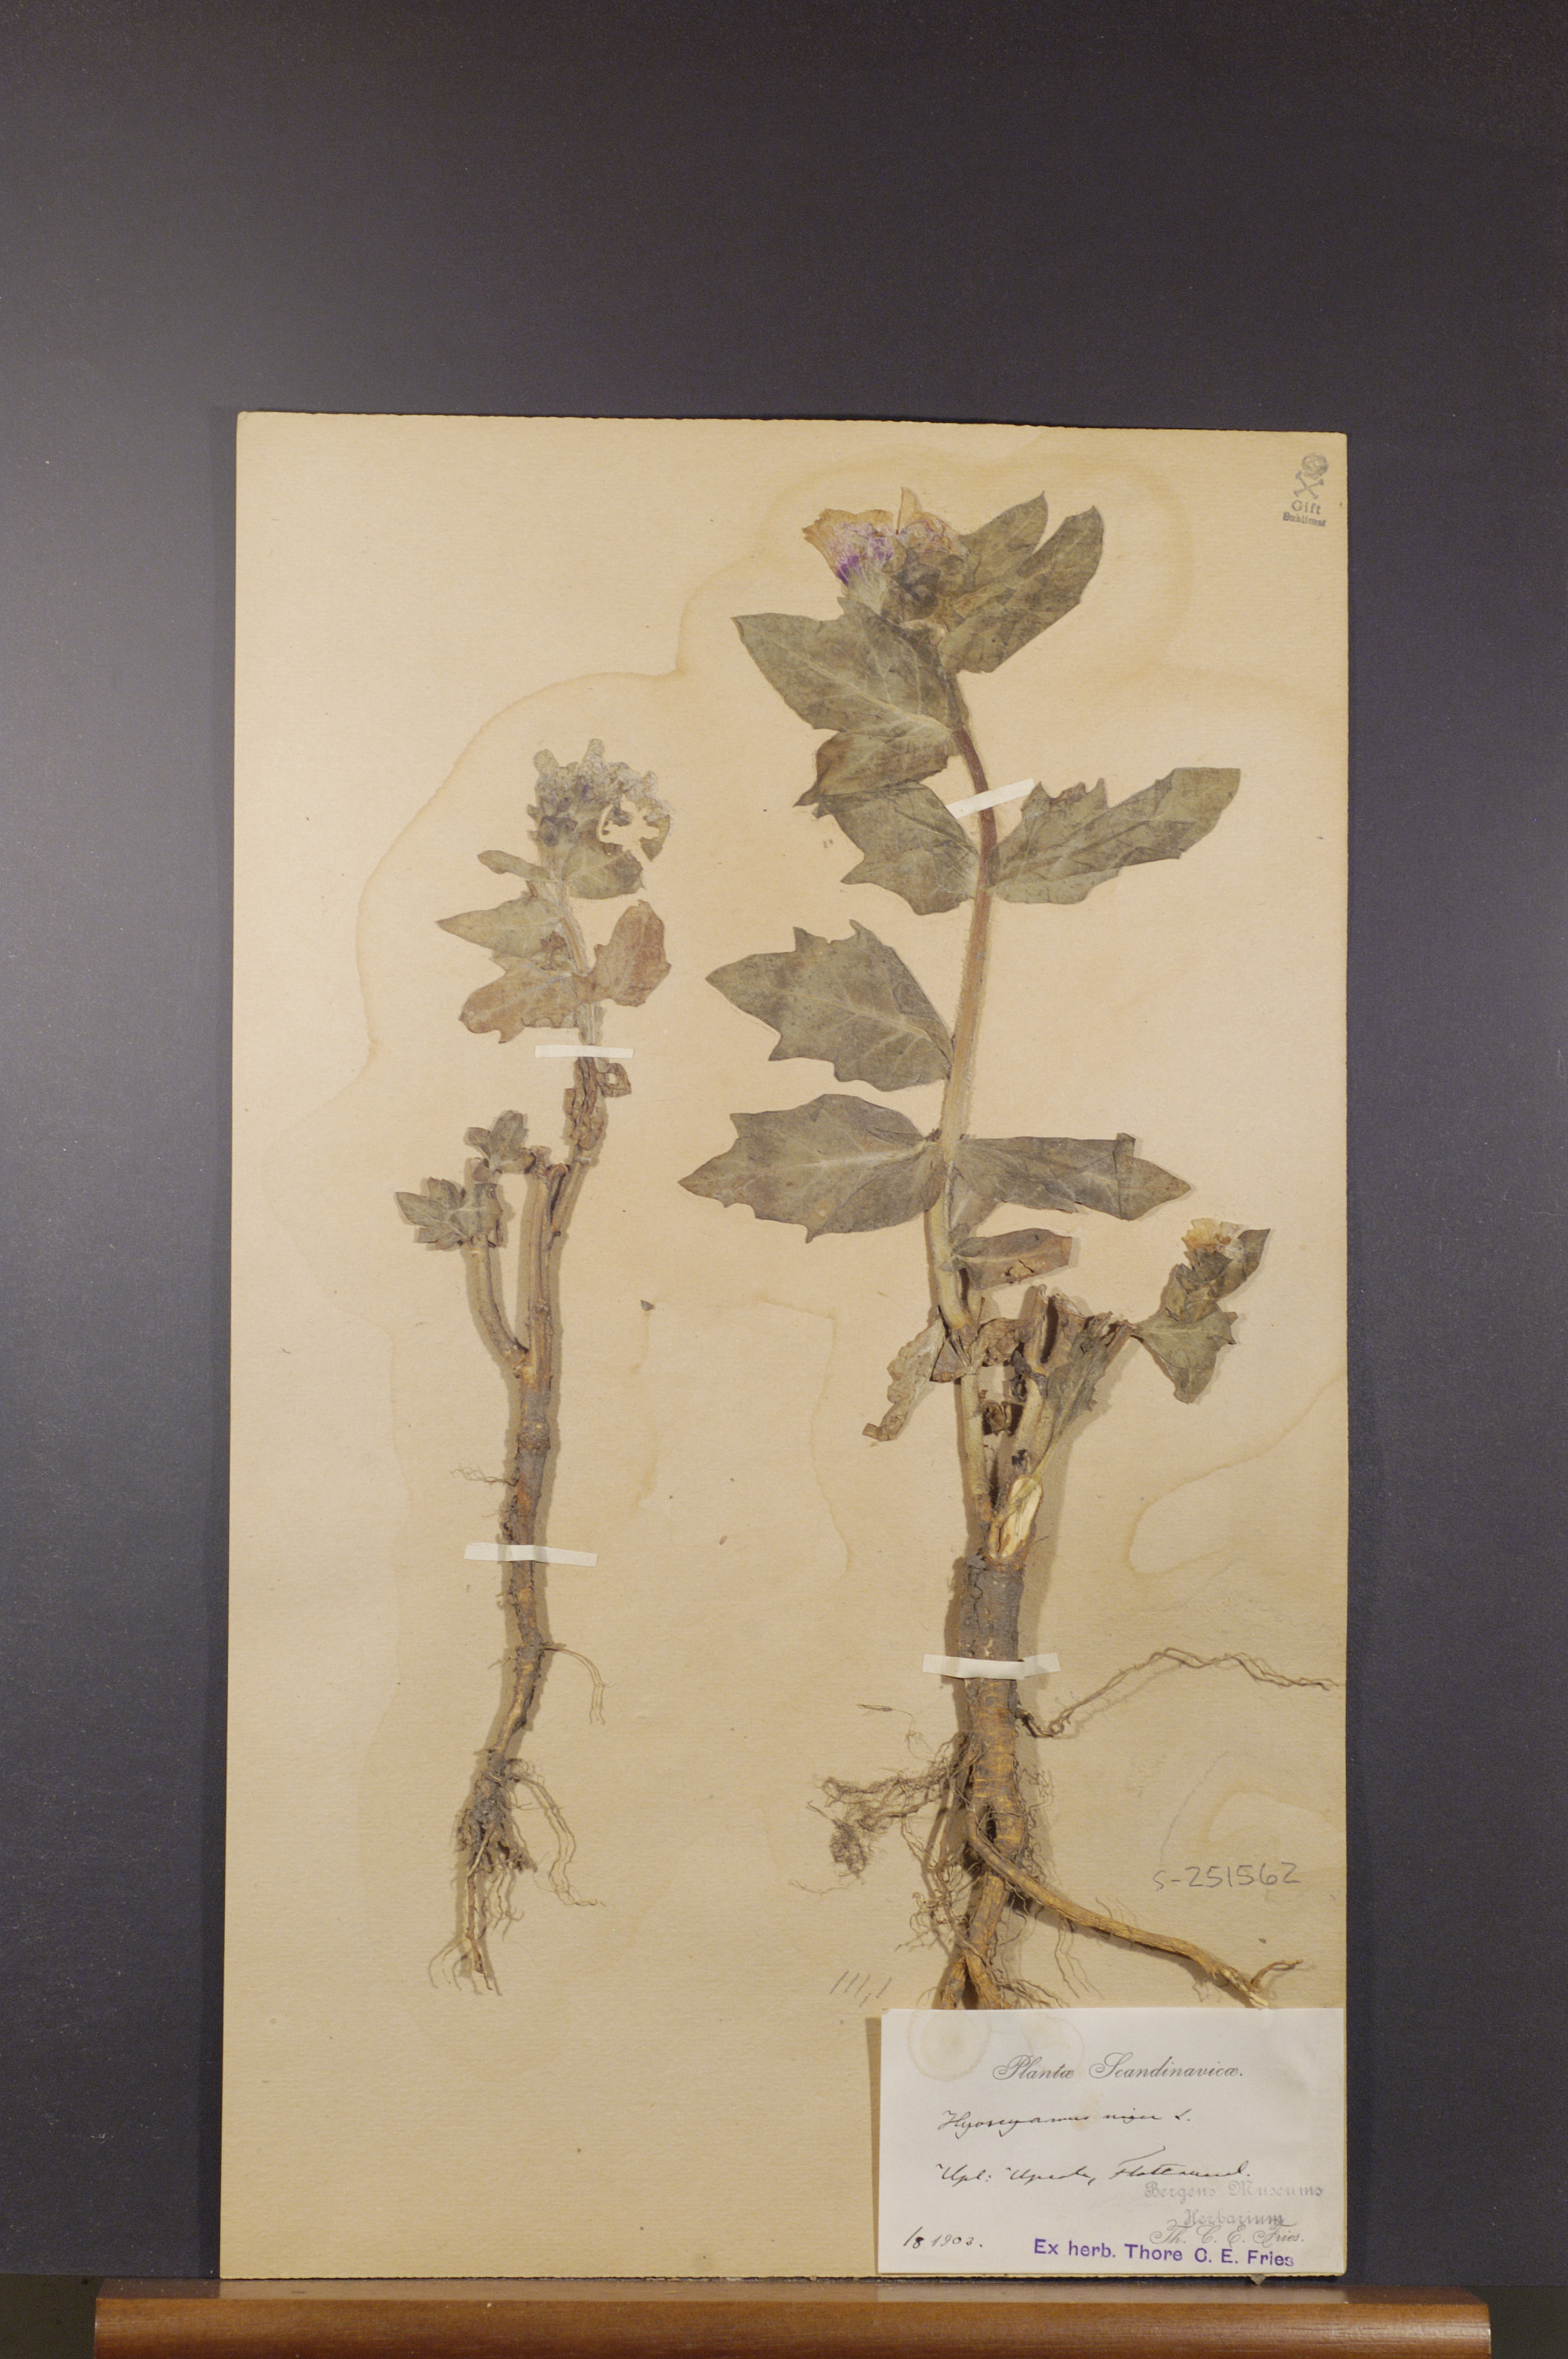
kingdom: Plantae
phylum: Tracheophyta
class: Magnoliopsida
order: Solanales
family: Solanaceae
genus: Hyoscyamus
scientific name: Hyoscyamus niger
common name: Henbane
